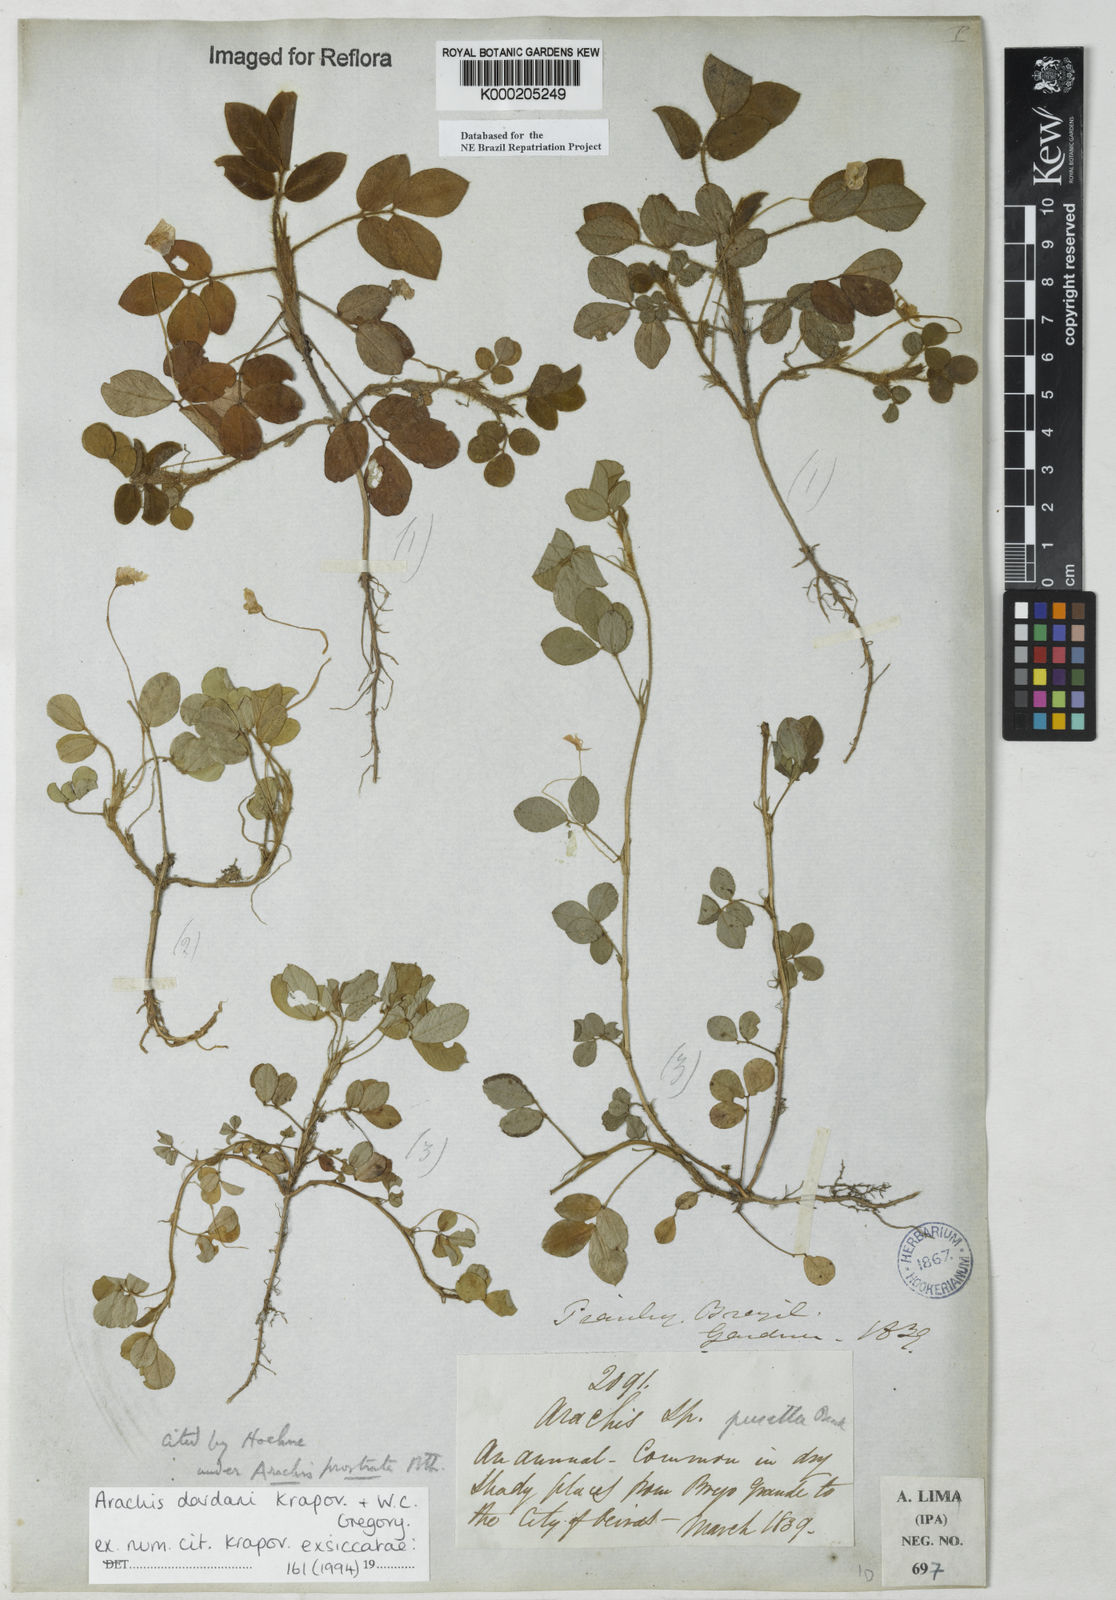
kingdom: Plantae
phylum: Tracheophyta
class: Magnoliopsida
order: Fabales
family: Fabaceae
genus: Arachis
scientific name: Arachis pusilla
